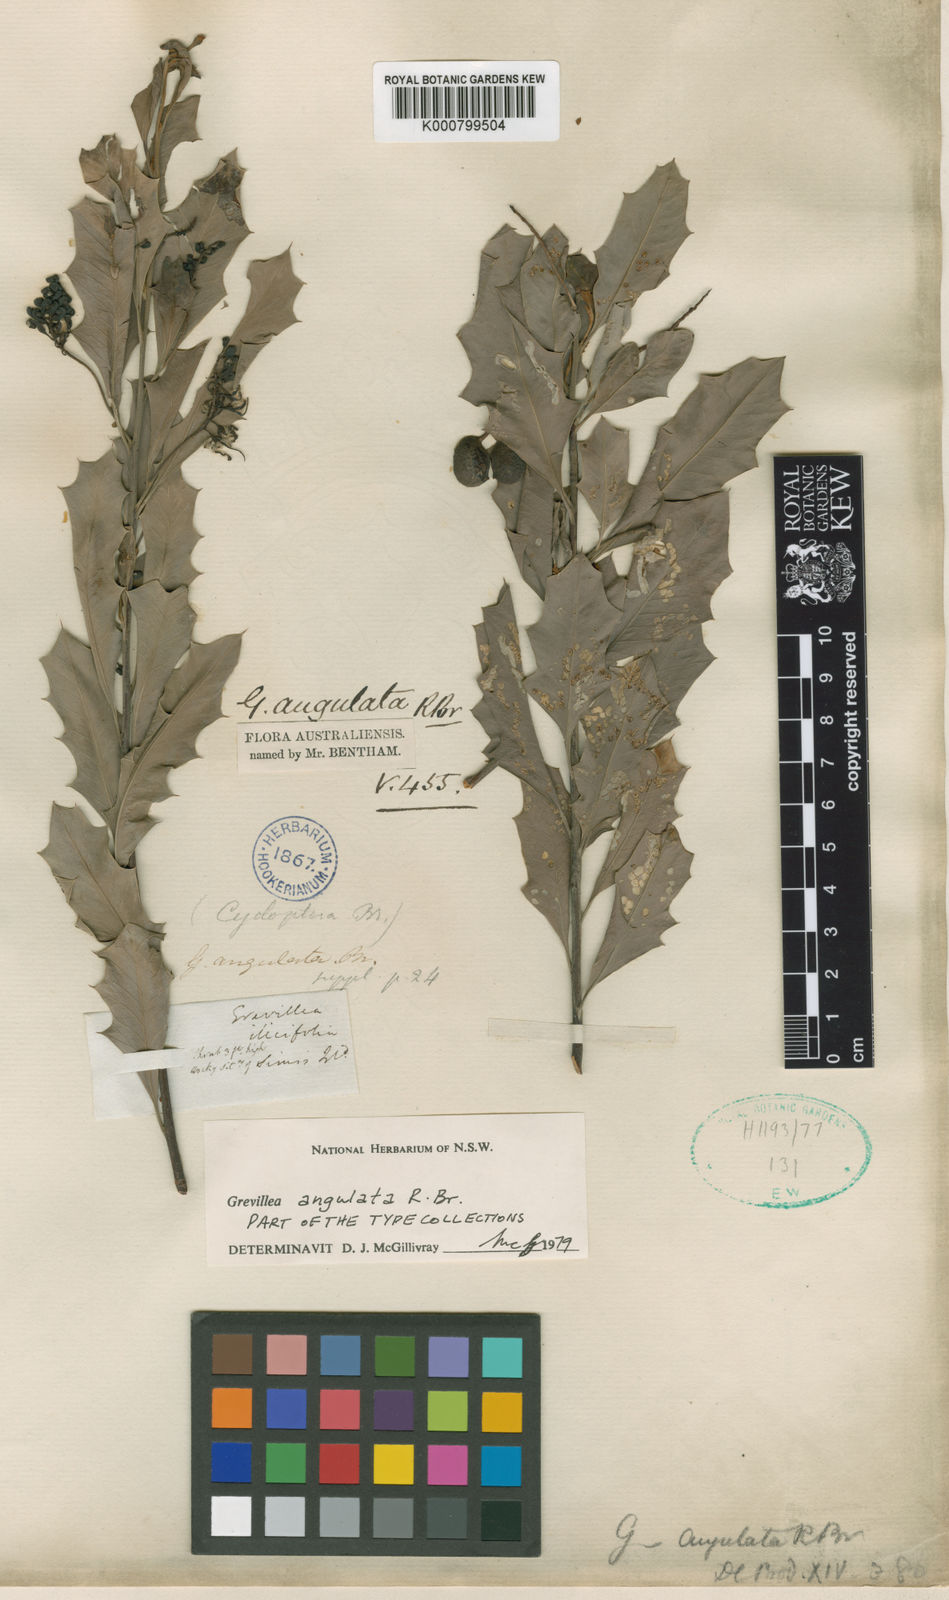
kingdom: Plantae
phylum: Tracheophyta
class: Magnoliopsida
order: Proteales
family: Proteaceae
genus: Grevillea
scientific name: Grevillea angulata
